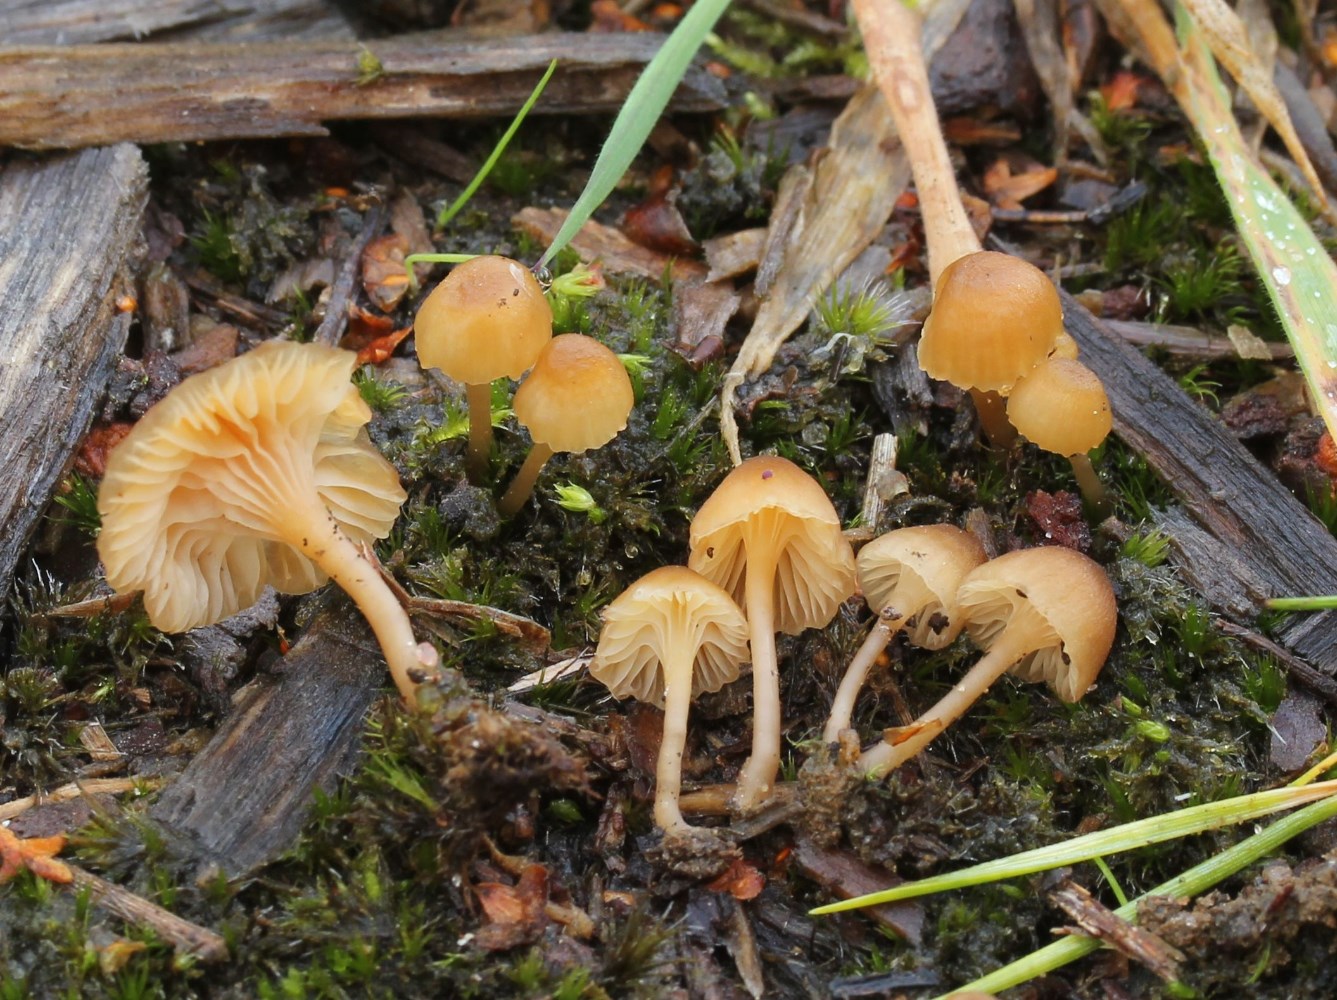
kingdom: Fungi
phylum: Basidiomycota
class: Agaricomycetes
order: Hymenochaetales
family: Rickenellaceae
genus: Rickenella
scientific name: Rickenella
